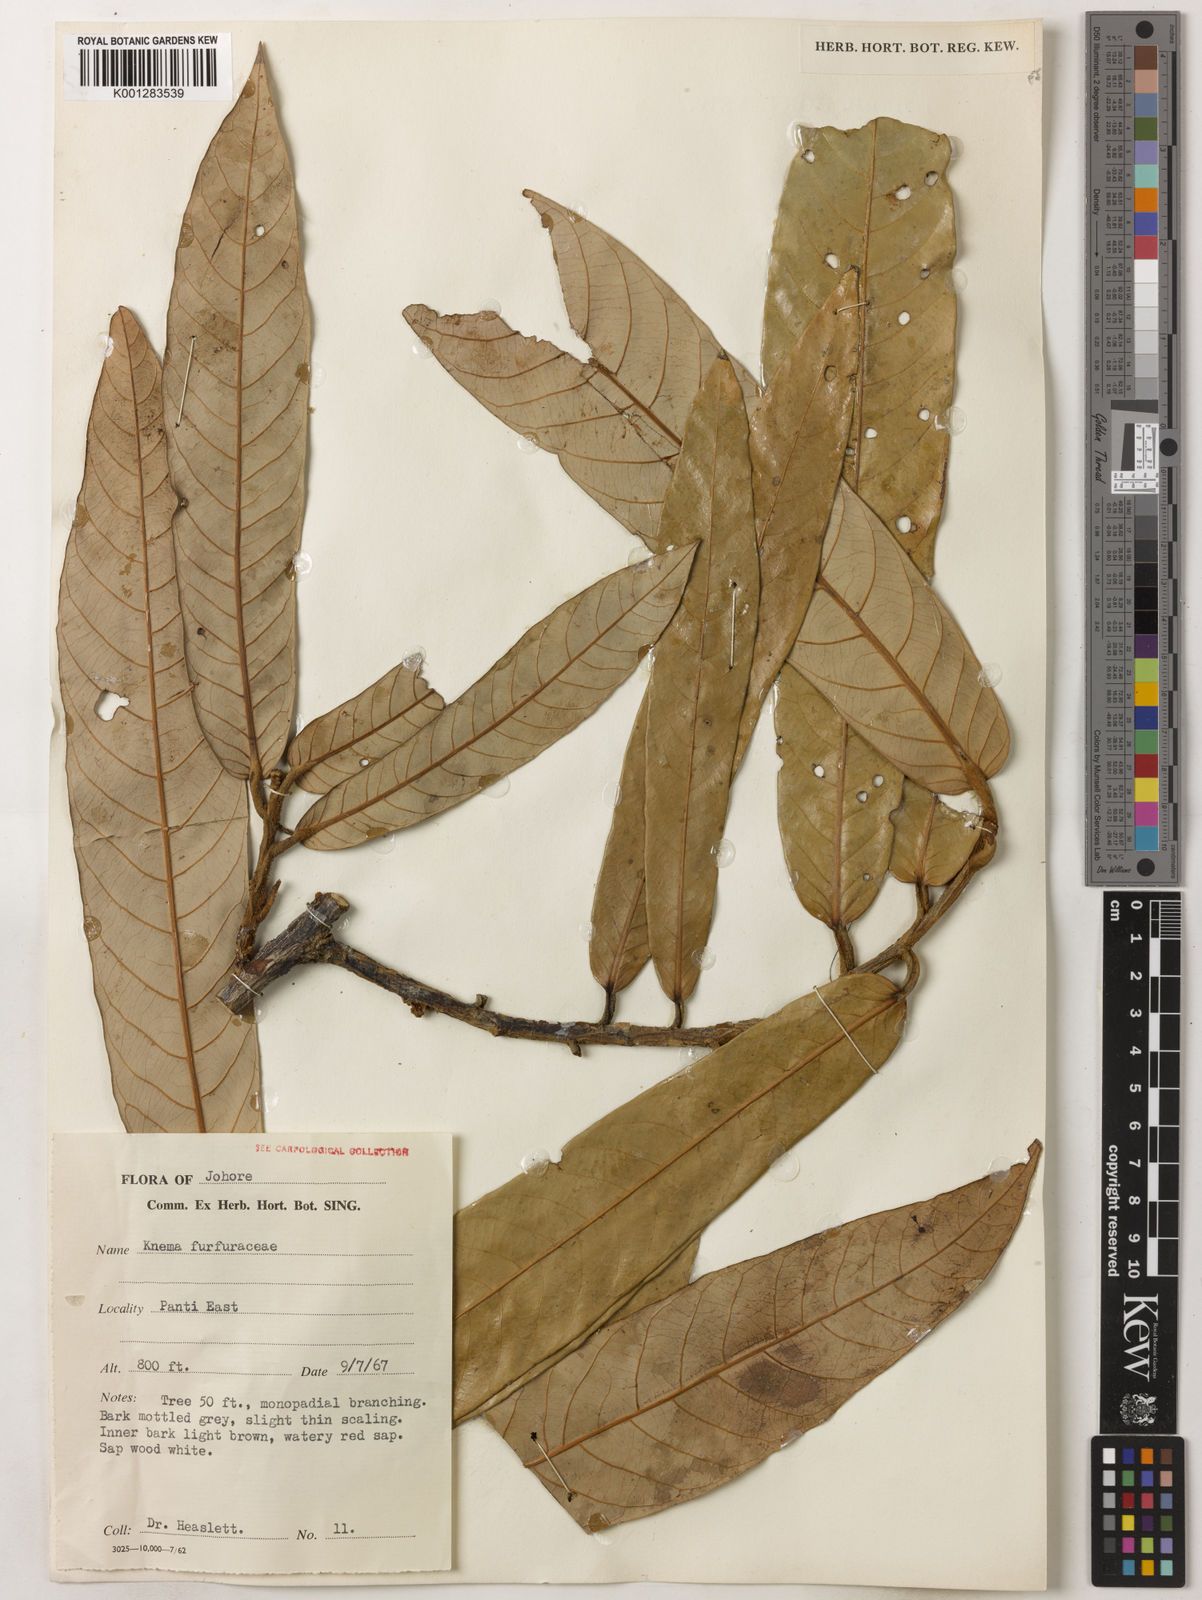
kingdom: Plantae
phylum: Tracheophyta
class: Magnoliopsida
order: Magnoliales
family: Myristicaceae
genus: Knema
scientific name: Knema furfuracea
